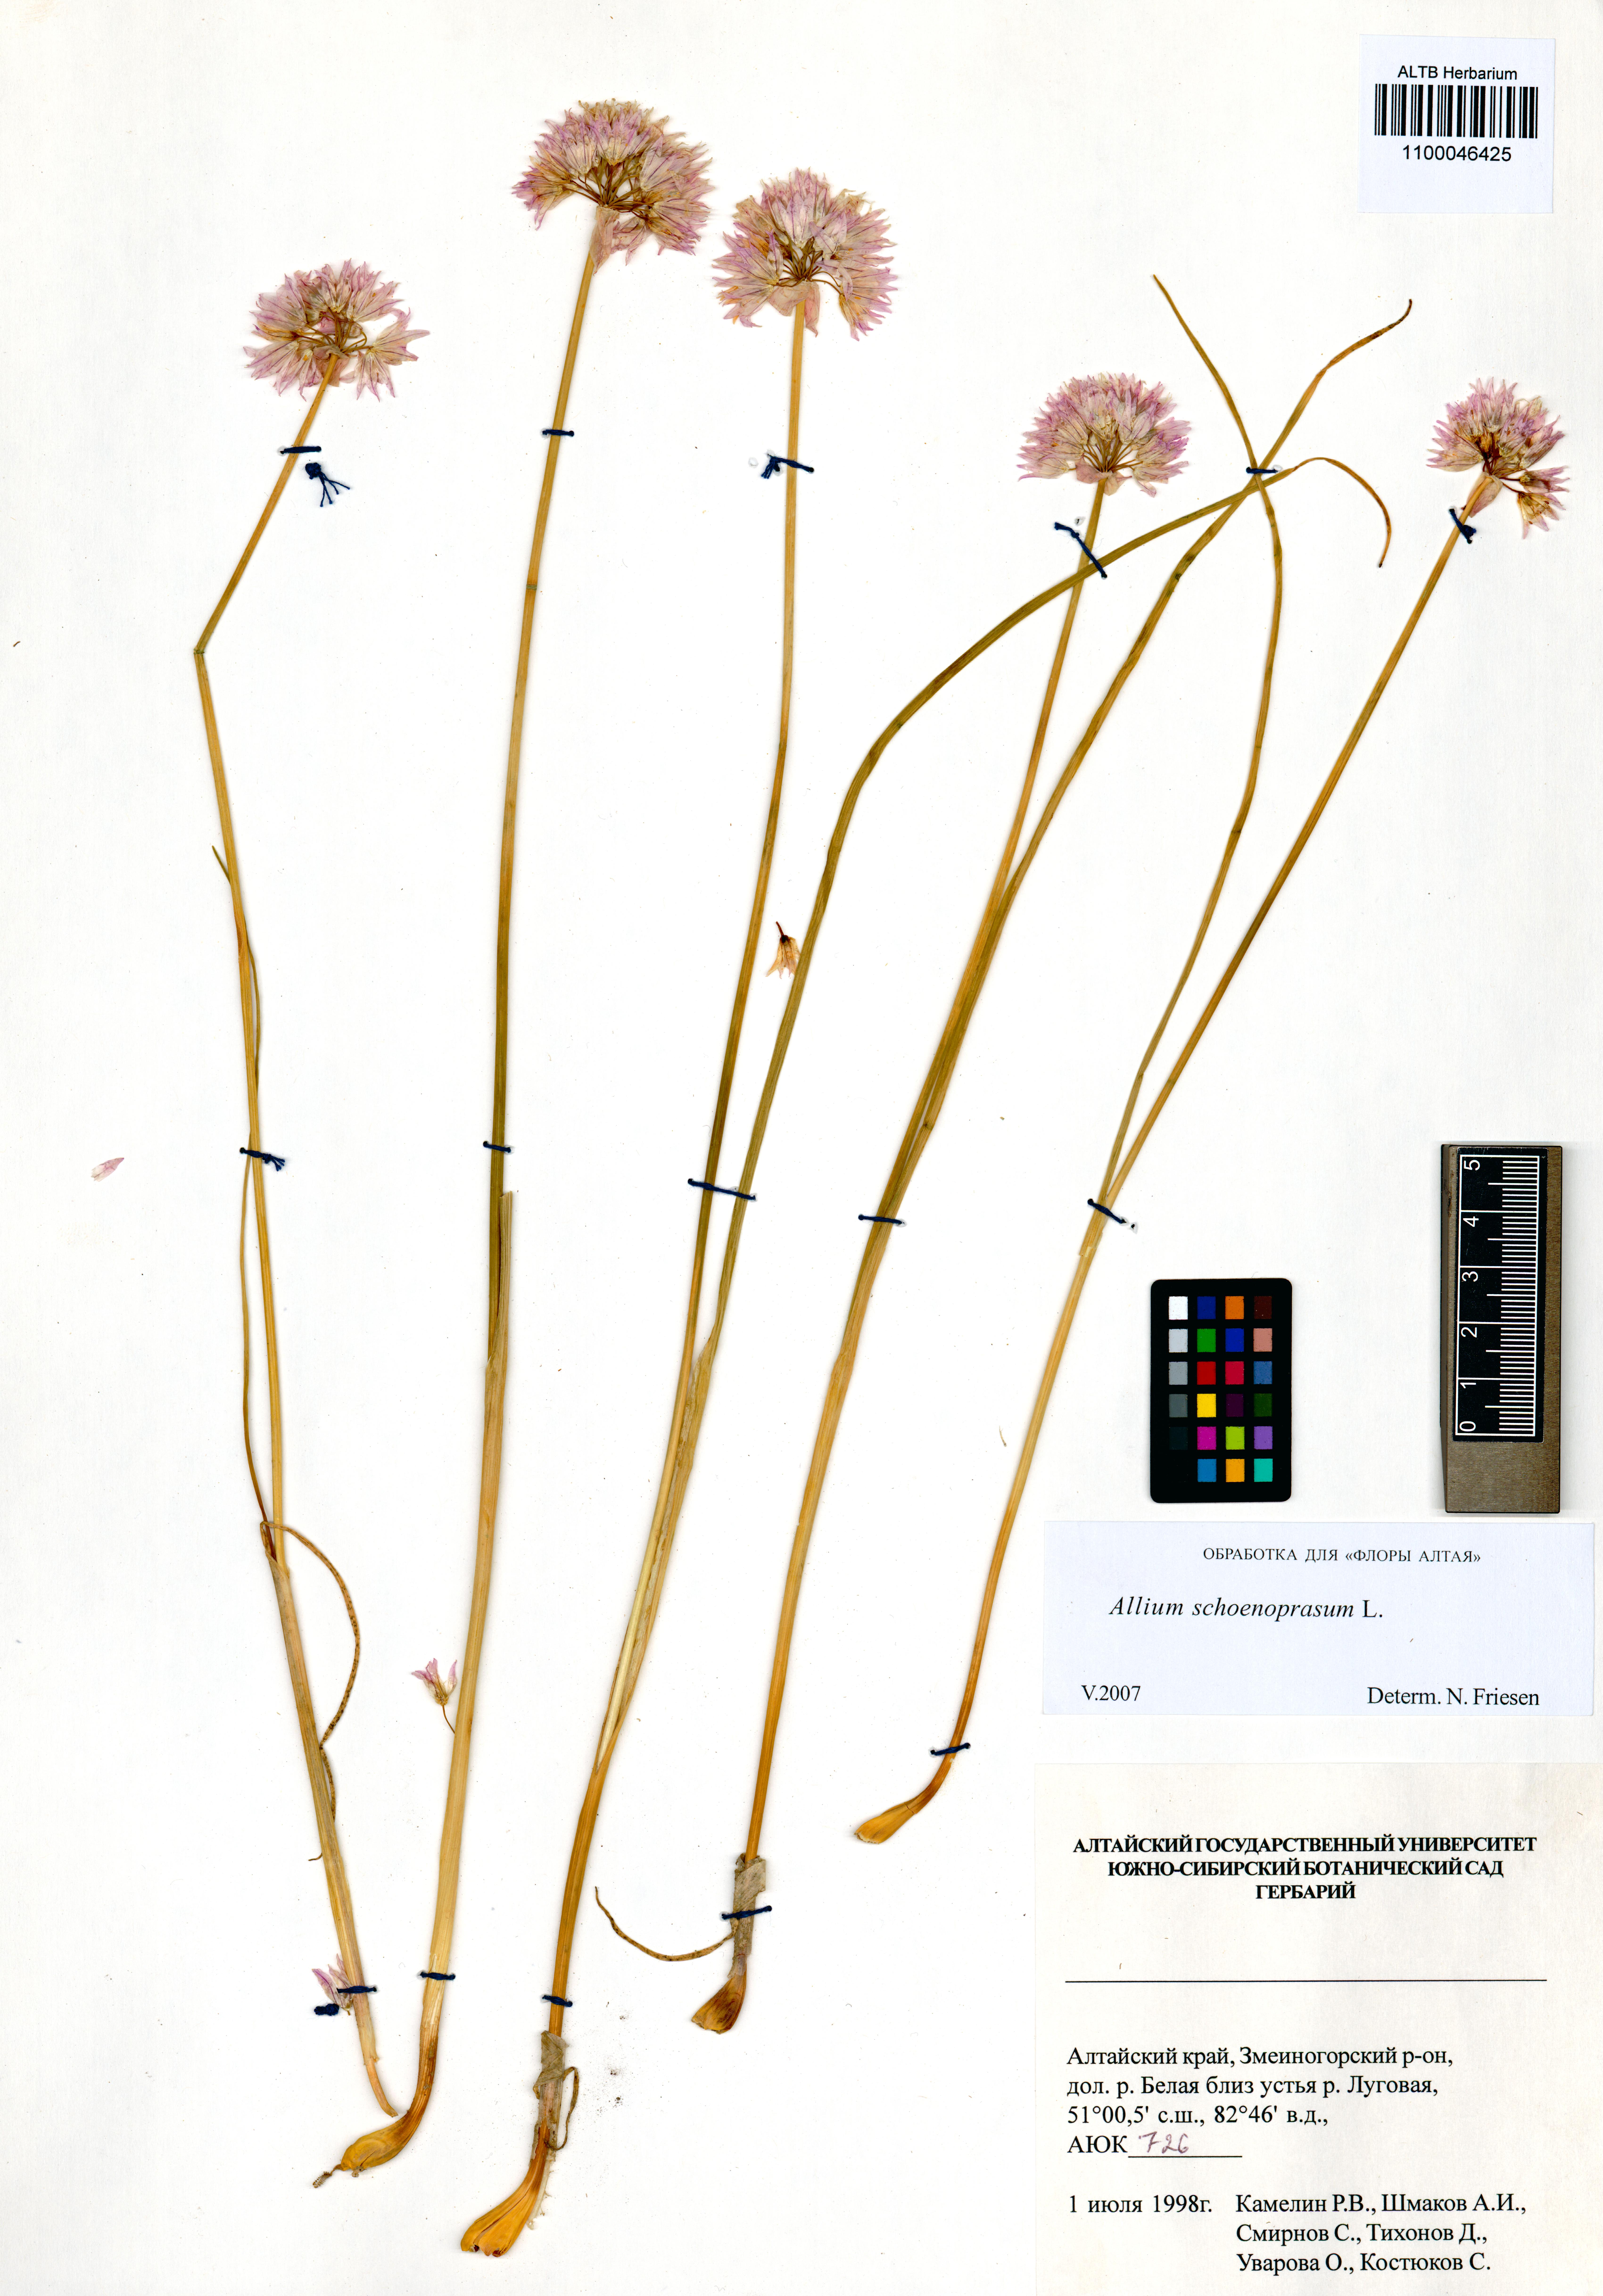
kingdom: Plantae
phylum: Tracheophyta
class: Liliopsida
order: Asparagales
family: Amaryllidaceae
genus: Allium
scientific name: Allium schoenoprasum
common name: Chives
